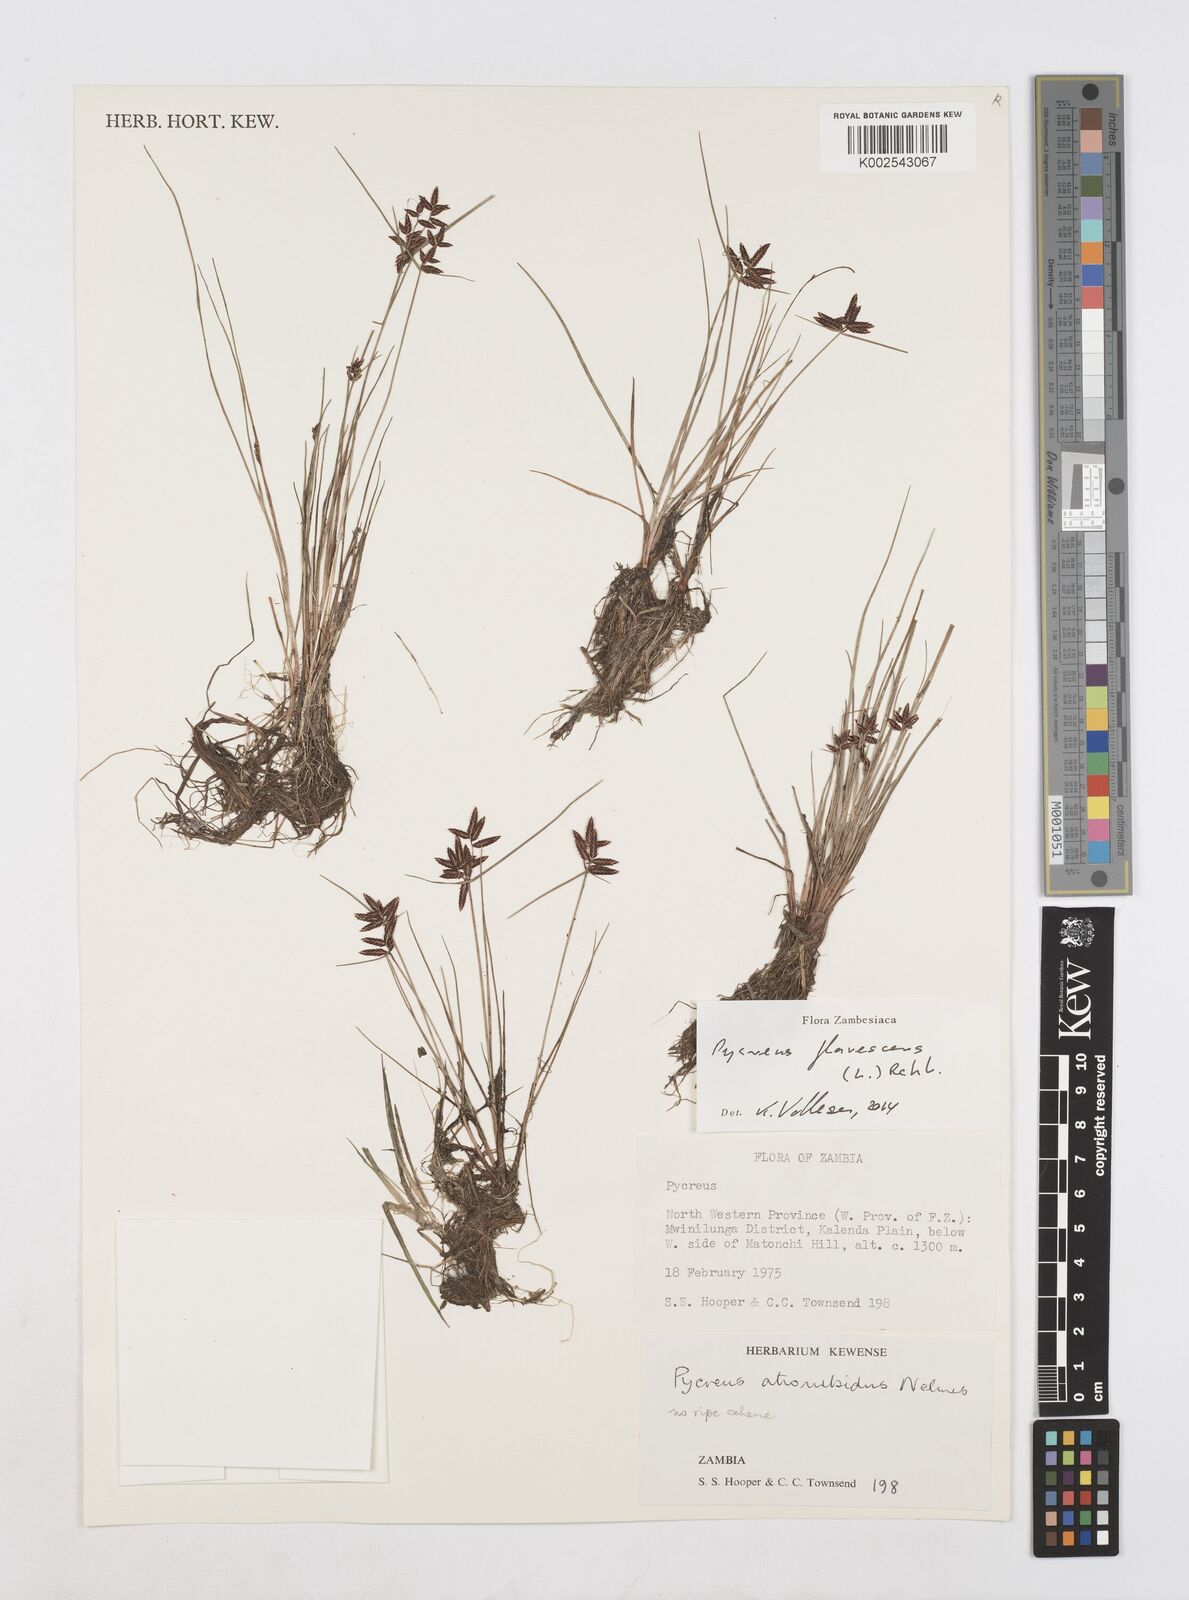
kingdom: Plantae
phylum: Tracheophyta
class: Liliopsida
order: Poales
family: Cyperaceae
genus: Cyperus
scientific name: Cyperus flavescens
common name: Yellow galingale
